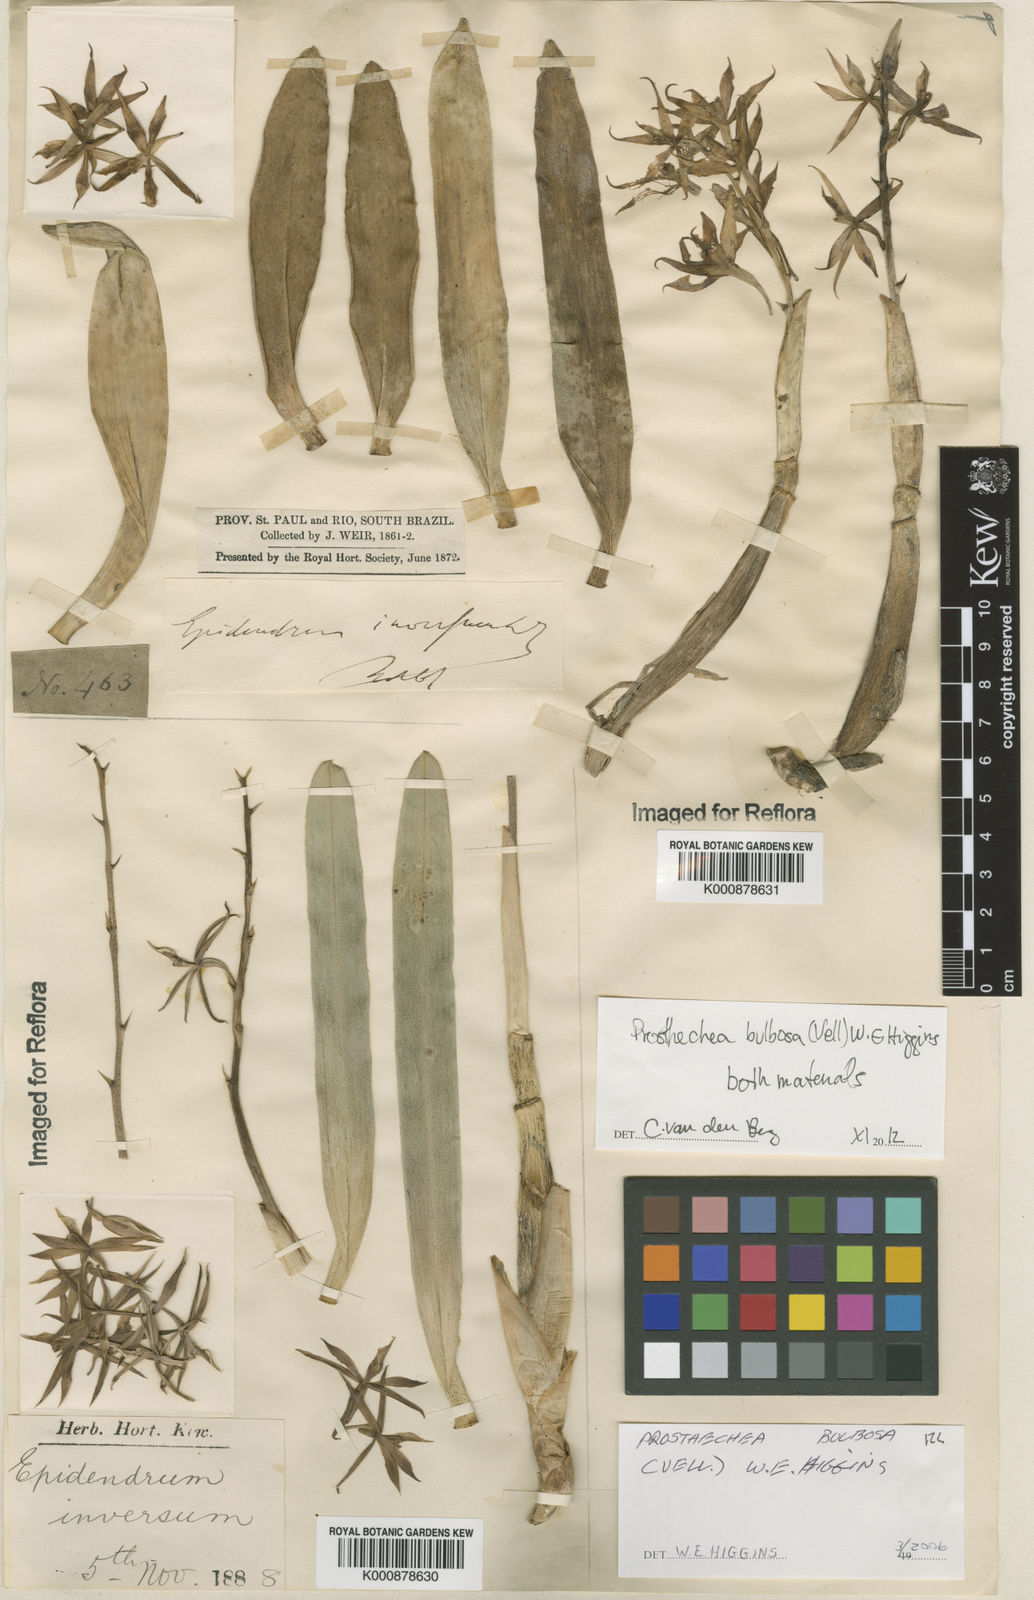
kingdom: Plantae
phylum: Tracheophyta
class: Liliopsida
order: Asparagales
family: Orchidaceae
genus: Prosthechea
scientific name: Prosthechea bulbosa
